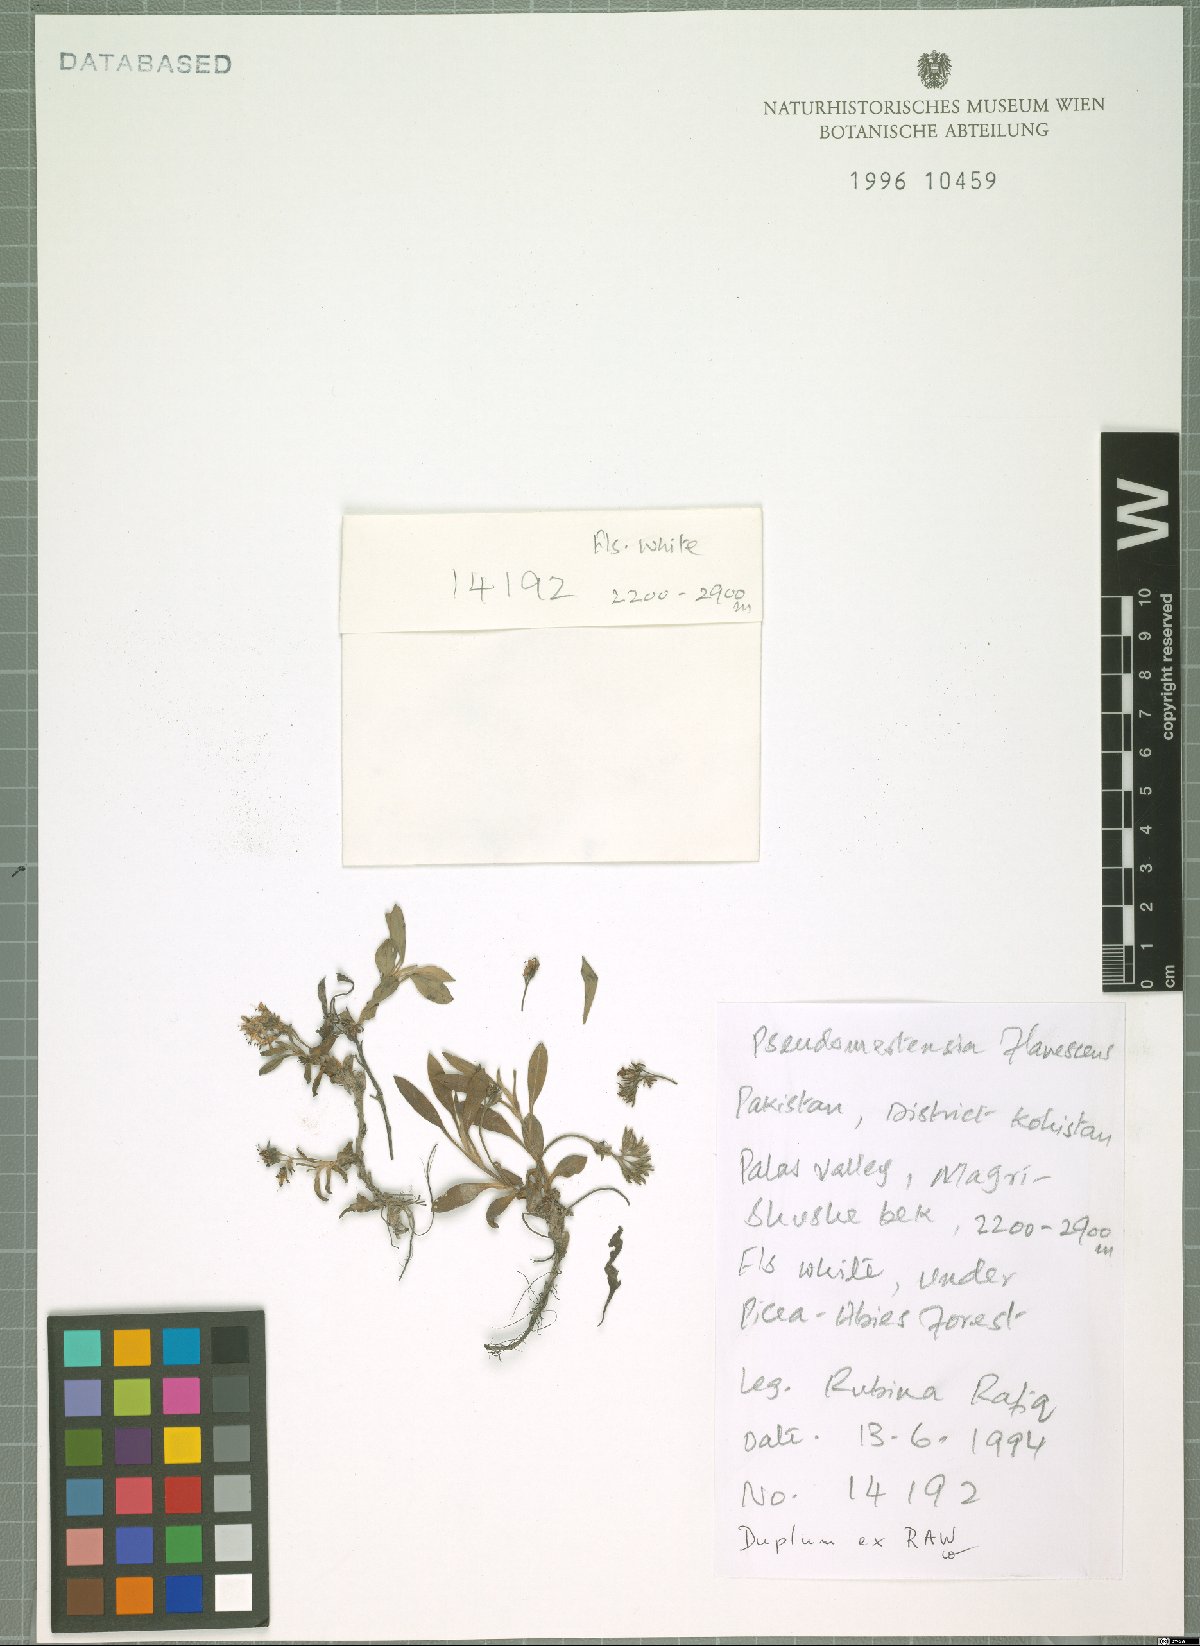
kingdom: Plantae
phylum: Tracheophyta
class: Magnoliopsida
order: Boraginales
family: Boraginaceae
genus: Decalepidanthus
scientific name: Decalepidanthus flavescens
